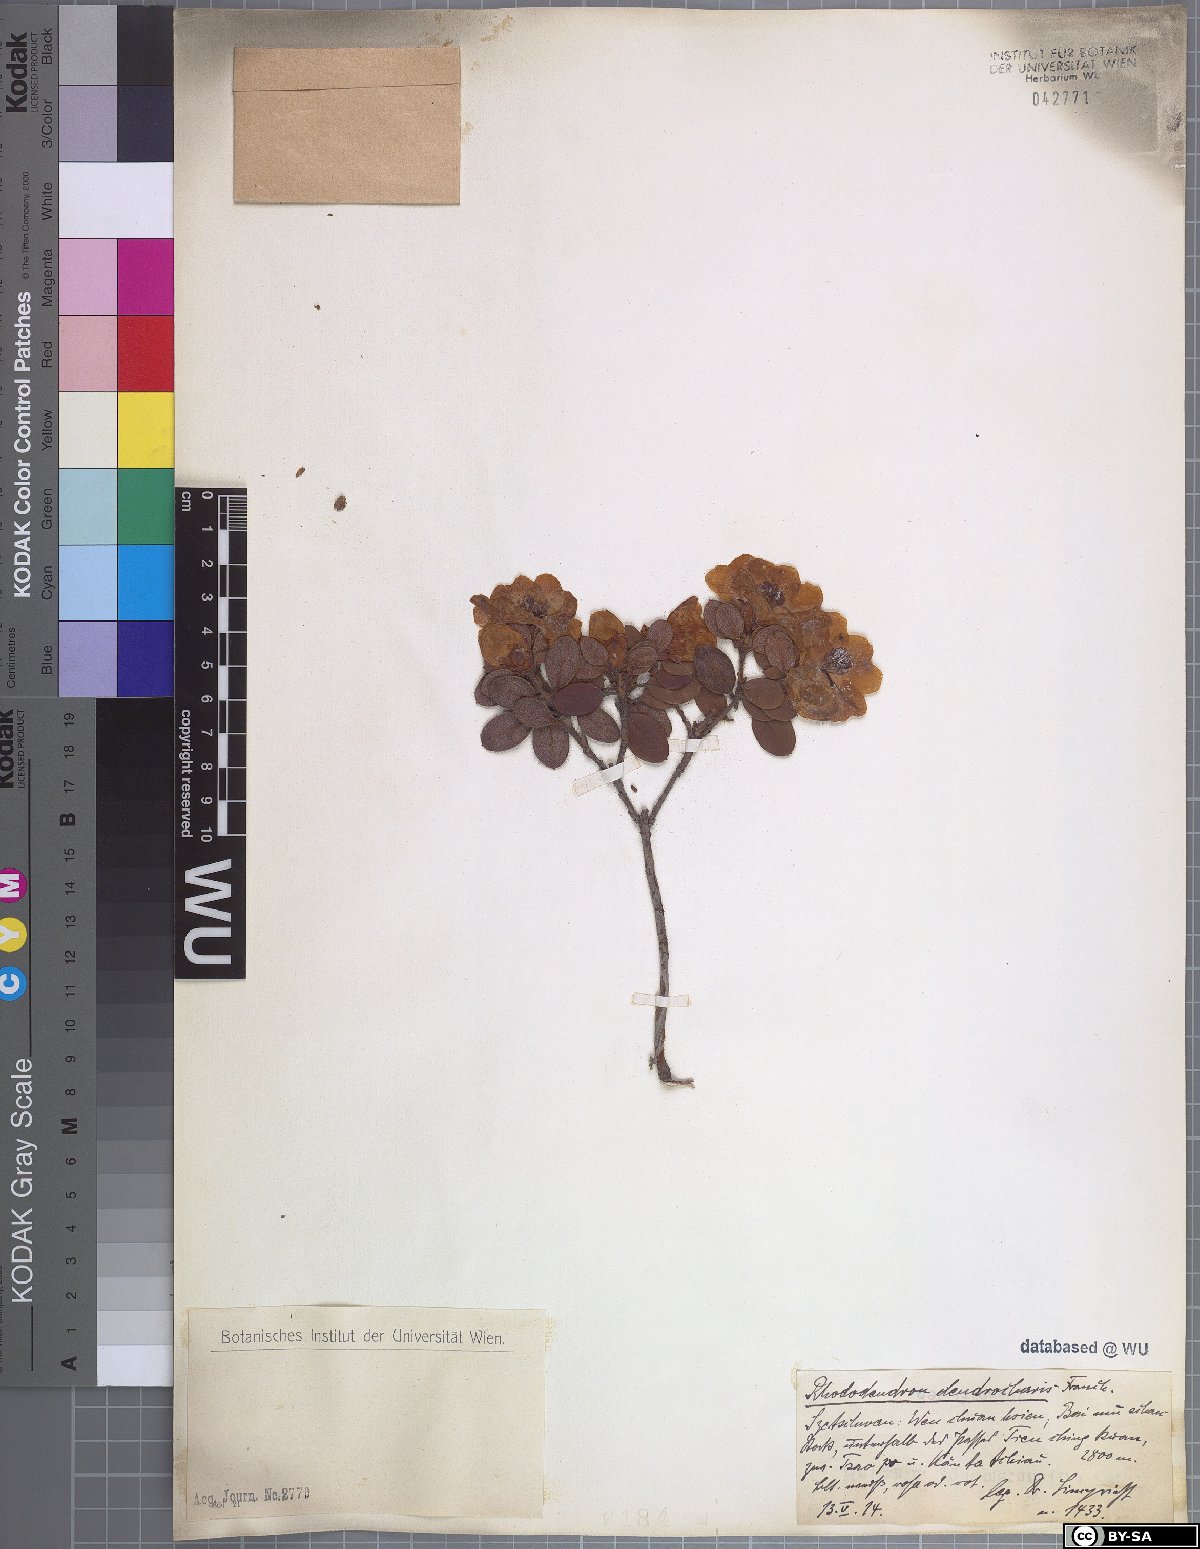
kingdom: Plantae
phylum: Tracheophyta
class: Magnoliopsida
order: Ericales
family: Ericaceae
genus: Rhododendron
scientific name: Rhododendron dendrocharis
